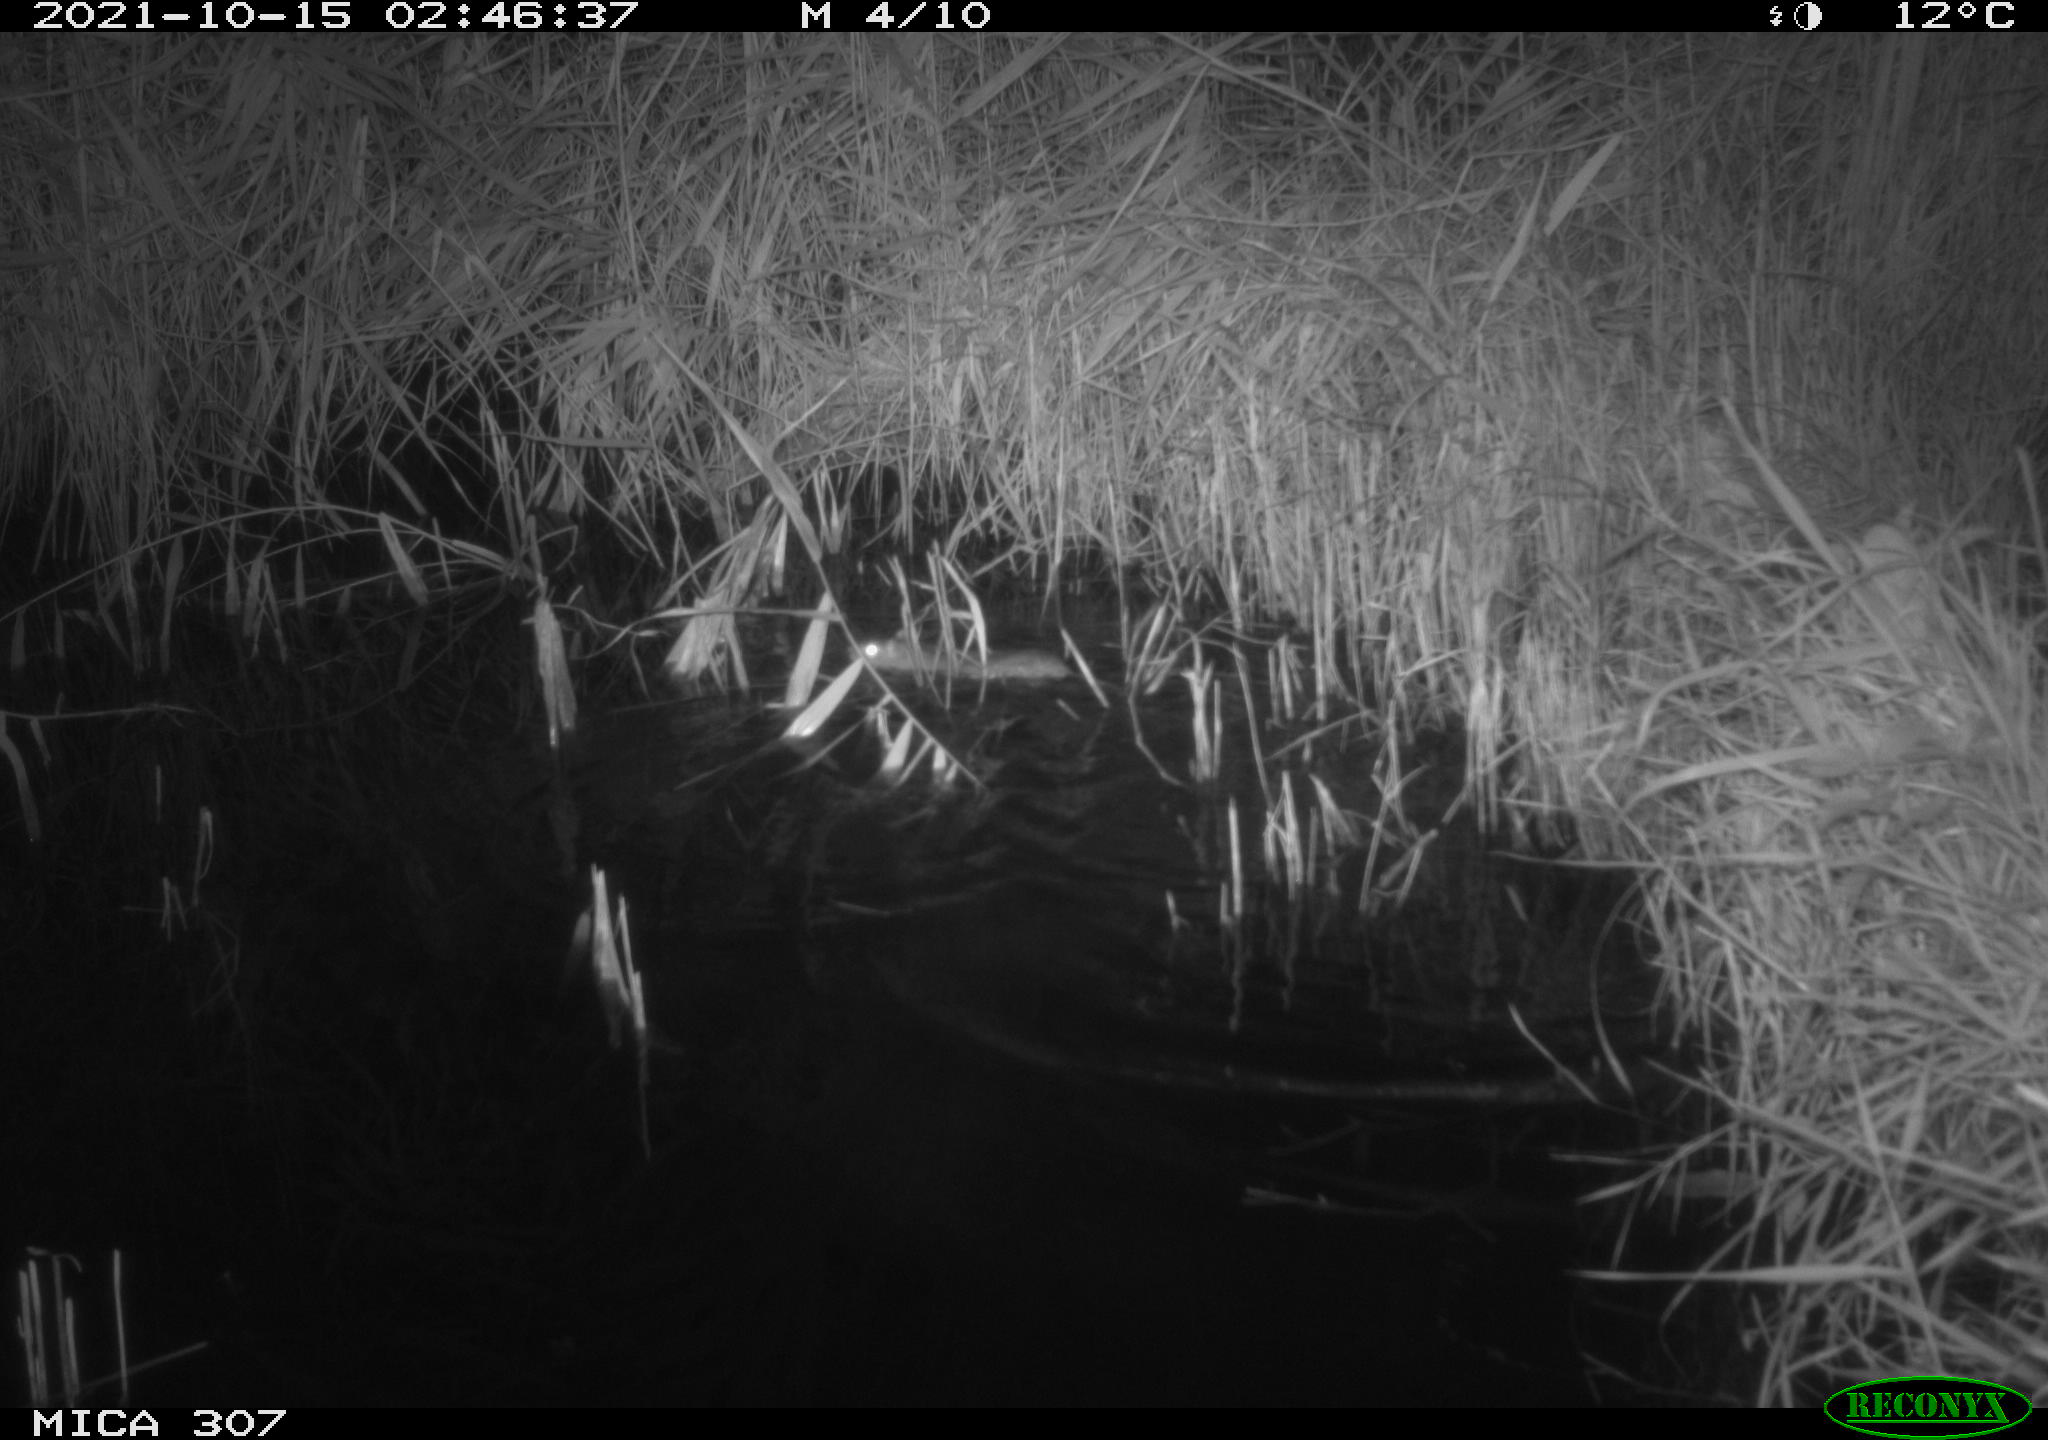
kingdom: Animalia
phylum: Chordata
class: Mammalia
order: Rodentia
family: Muridae
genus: Rattus
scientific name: Rattus norvegicus
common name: Brown rat
